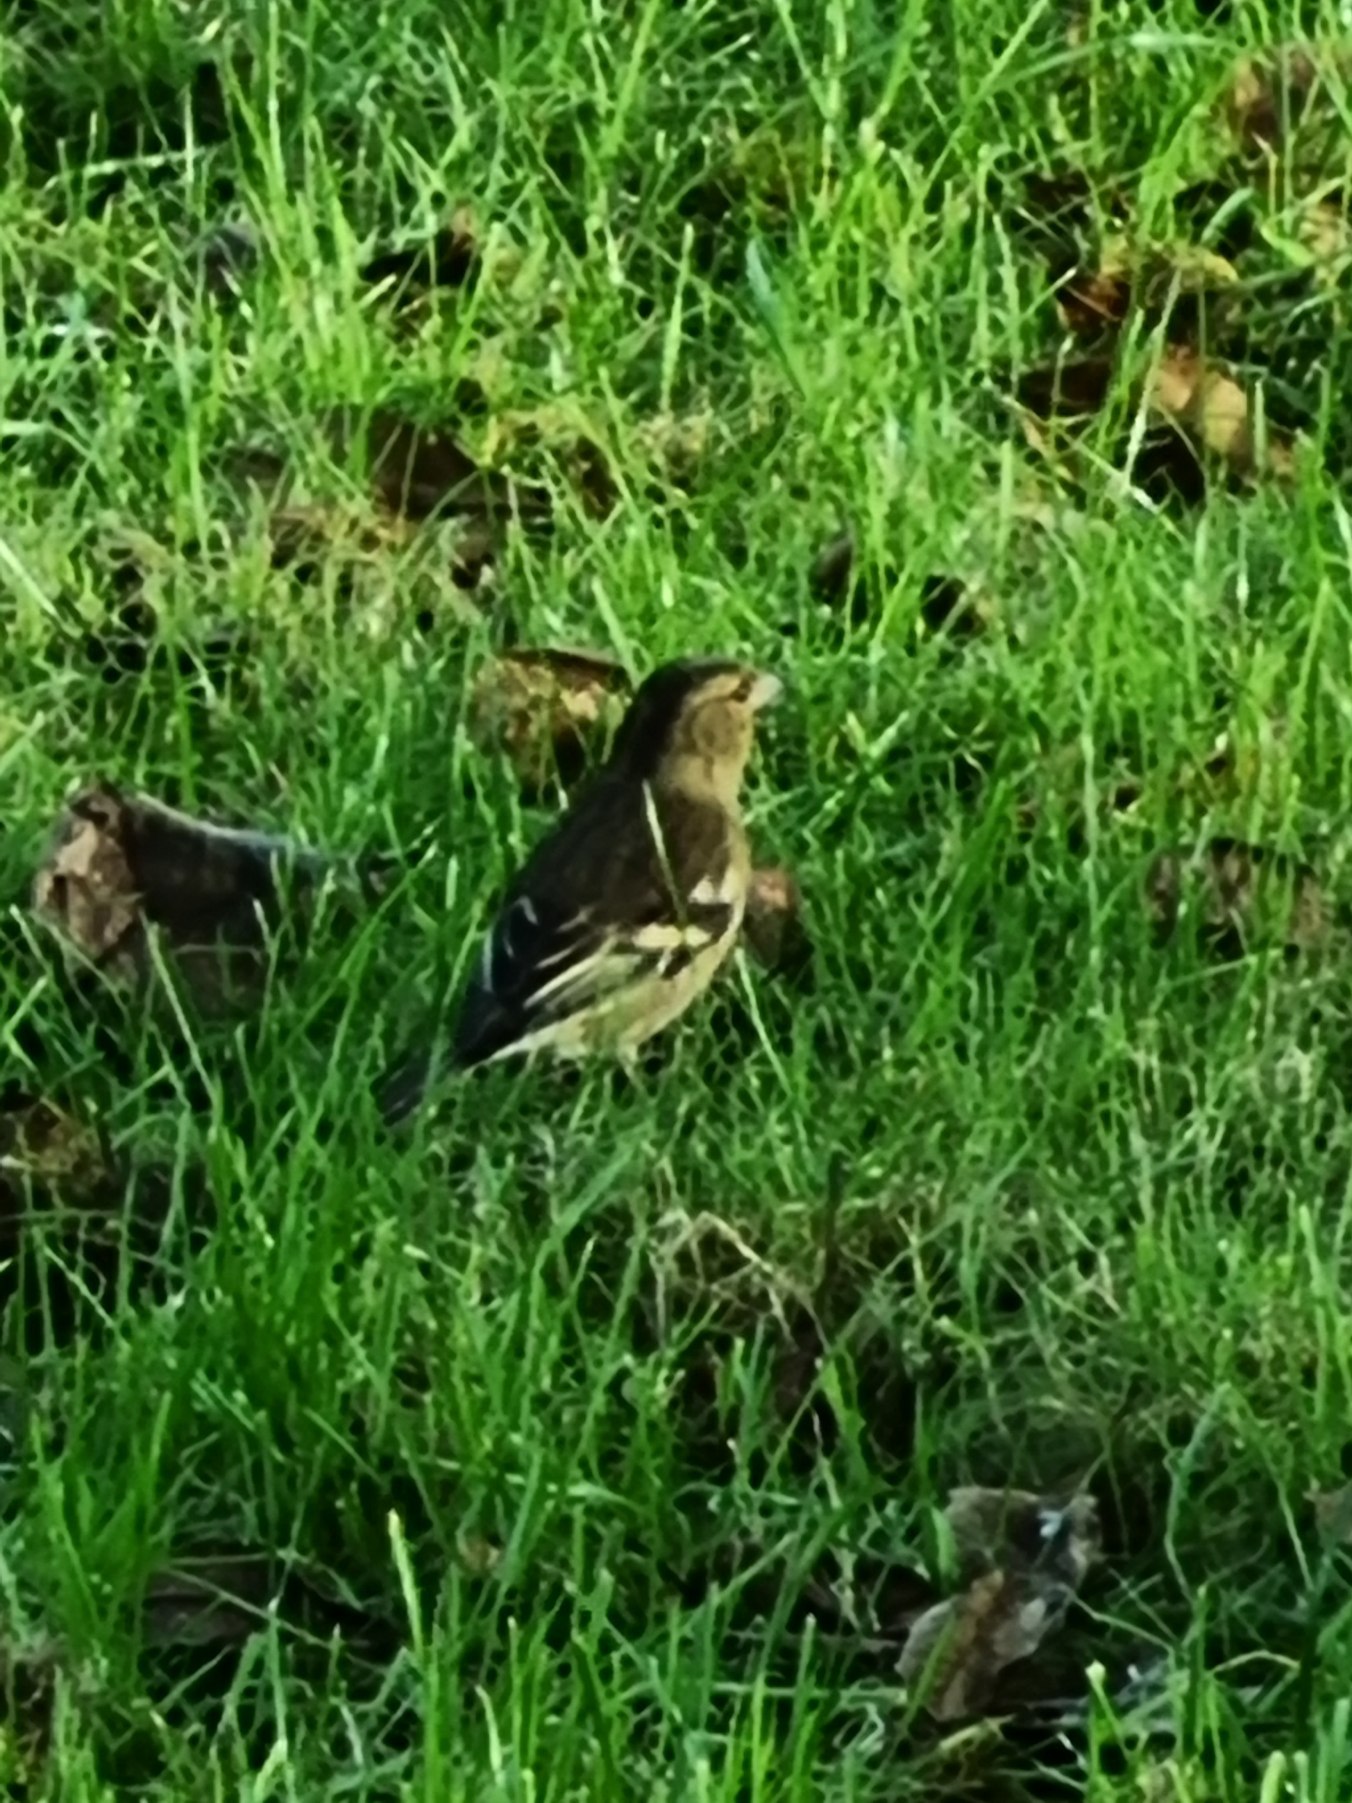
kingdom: Animalia
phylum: Chordata
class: Aves
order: Passeriformes
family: Fringillidae
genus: Fringilla
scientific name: Fringilla coelebs
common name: Bogfinke
